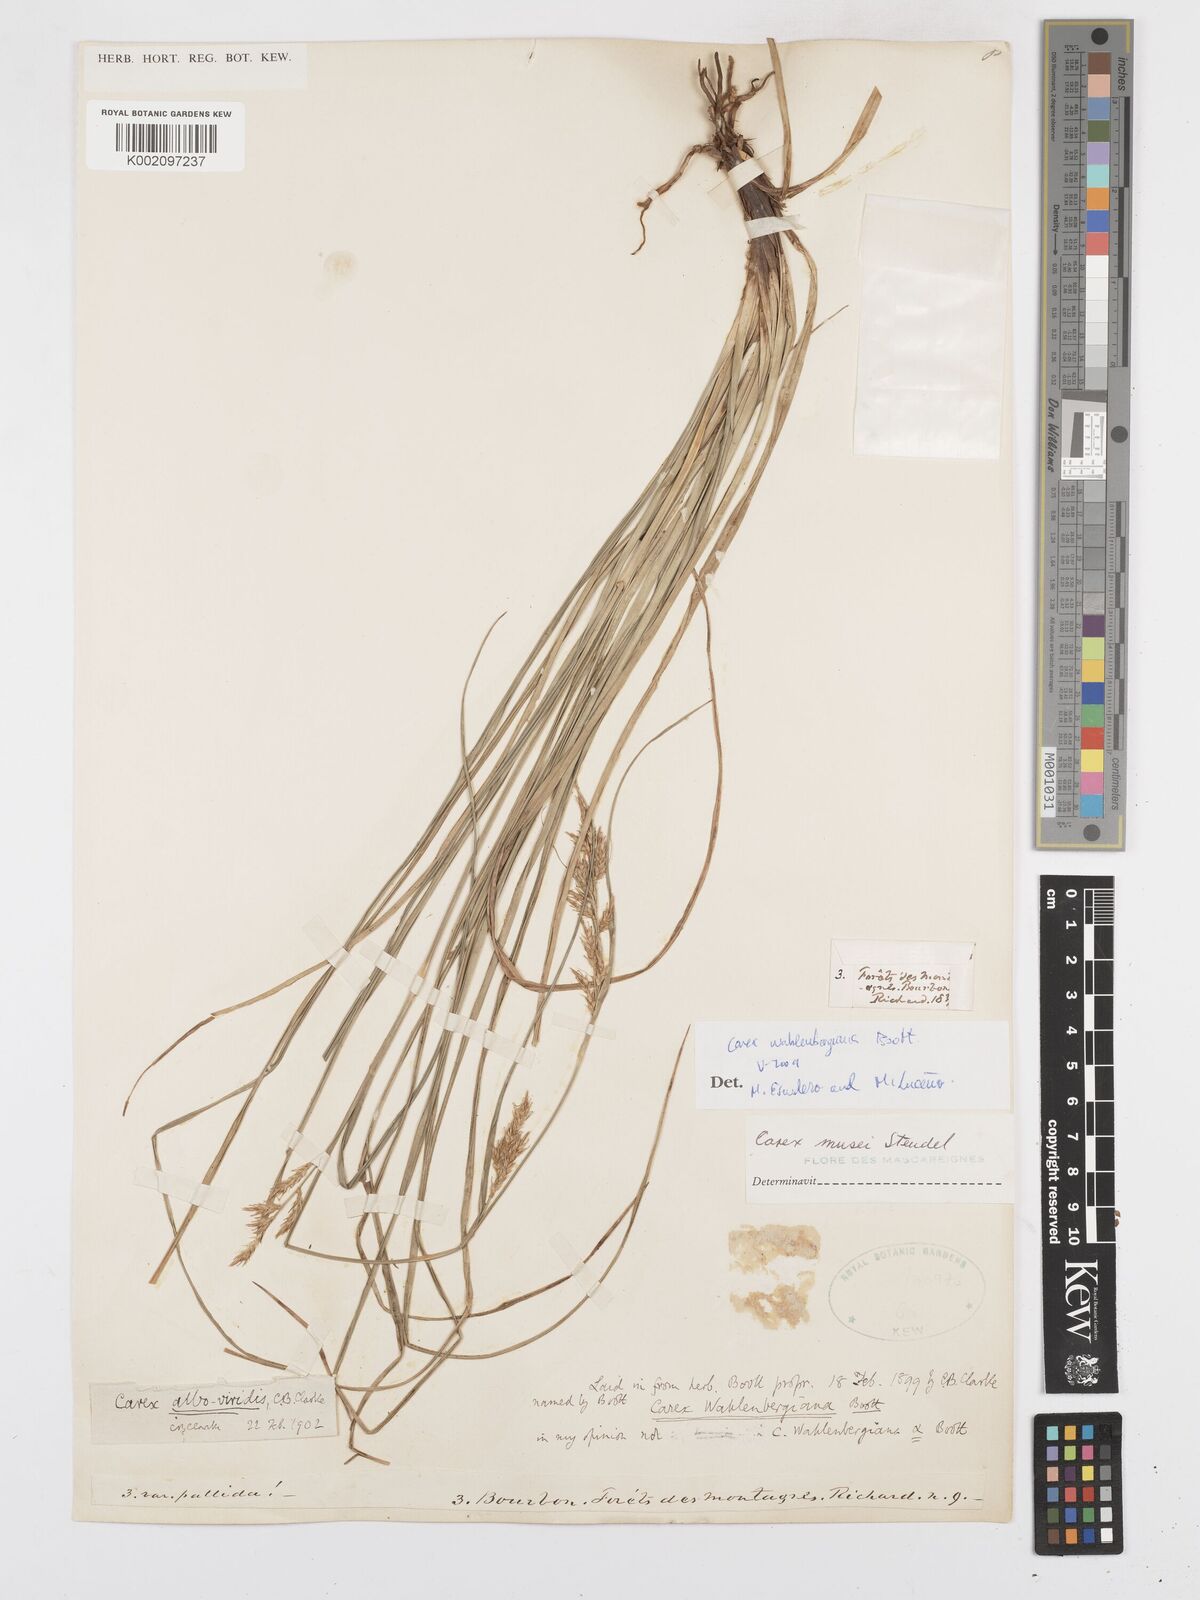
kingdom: Plantae
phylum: Tracheophyta
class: Liliopsida
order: Poales
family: Cyperaceae
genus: Carex
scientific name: Carex wahlenbergiana
